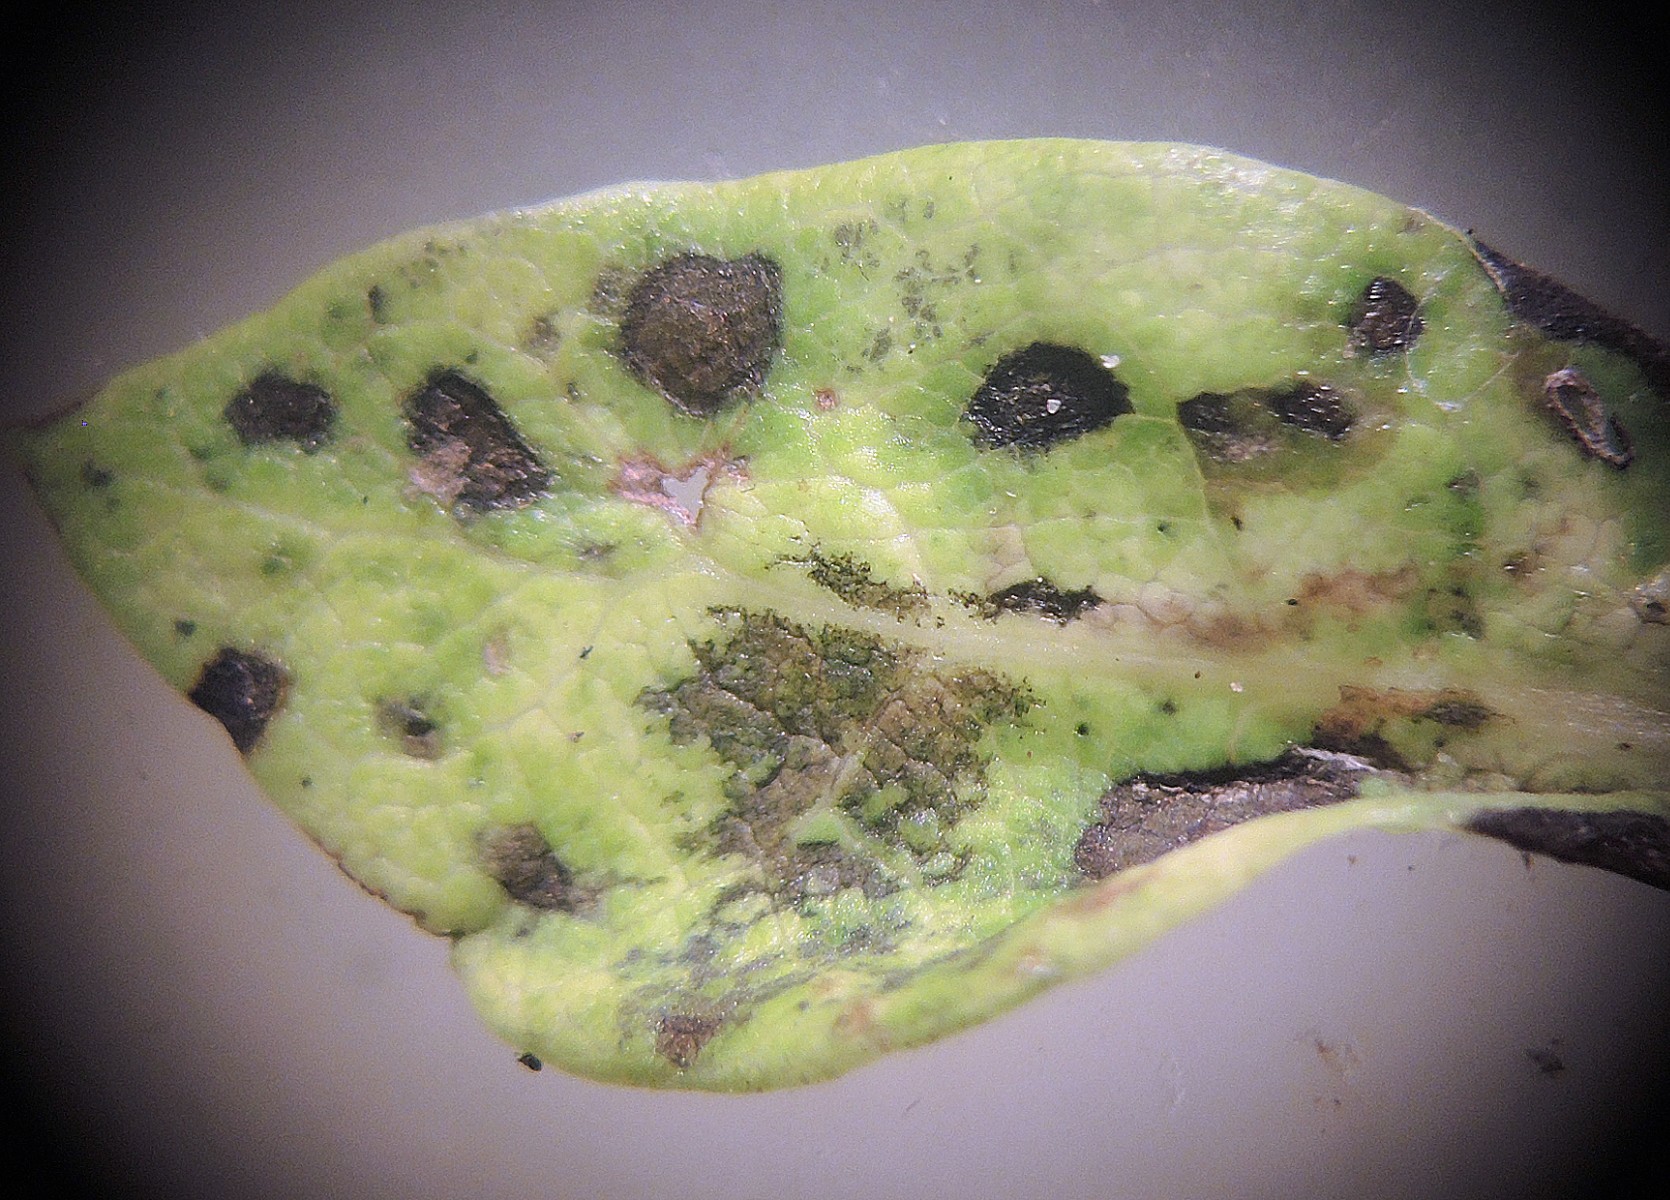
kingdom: Fungi
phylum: Ascomycota
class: Dothideomycetes
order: Pleosporales
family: Didymellaceae
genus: Ascochyta
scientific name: Ascochyta tenerrima
